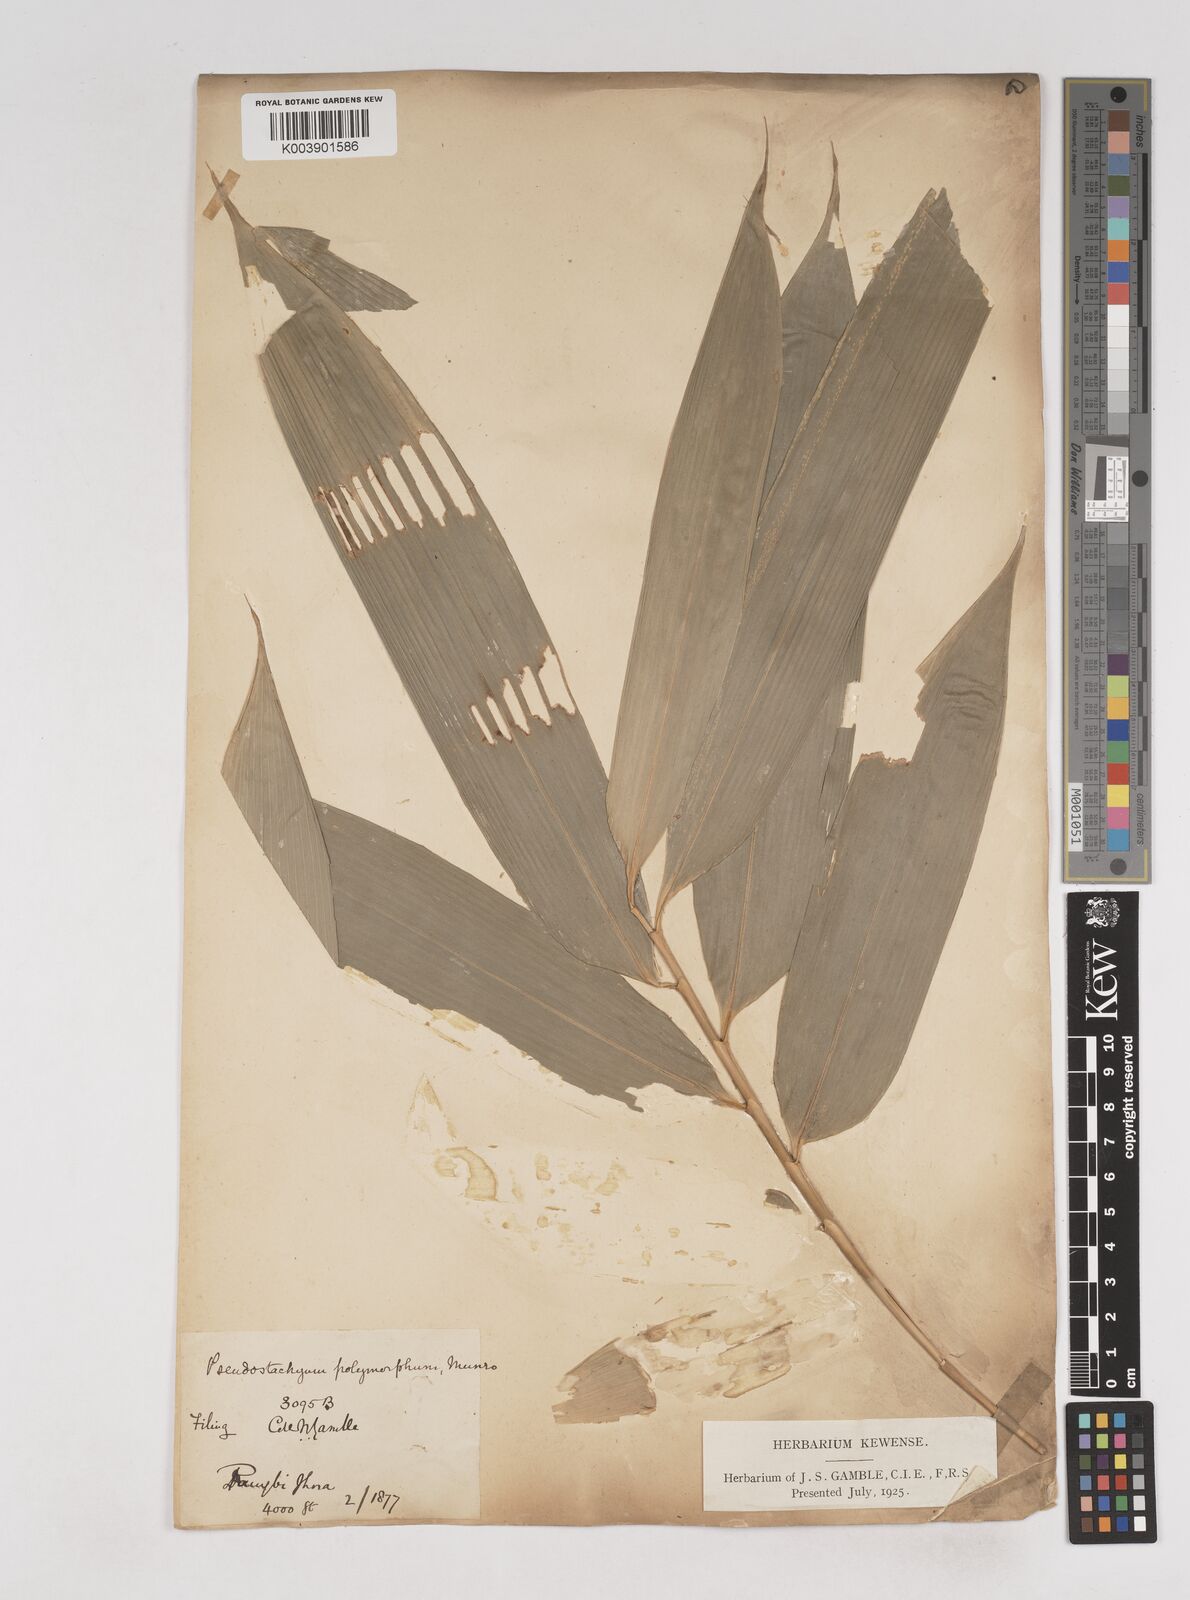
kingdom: Plantae
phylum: Tracheophyta
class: Liliopsida
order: Poales
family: Poaceae
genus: Pseudostachyum
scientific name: Pseudostachyum polymorphum
